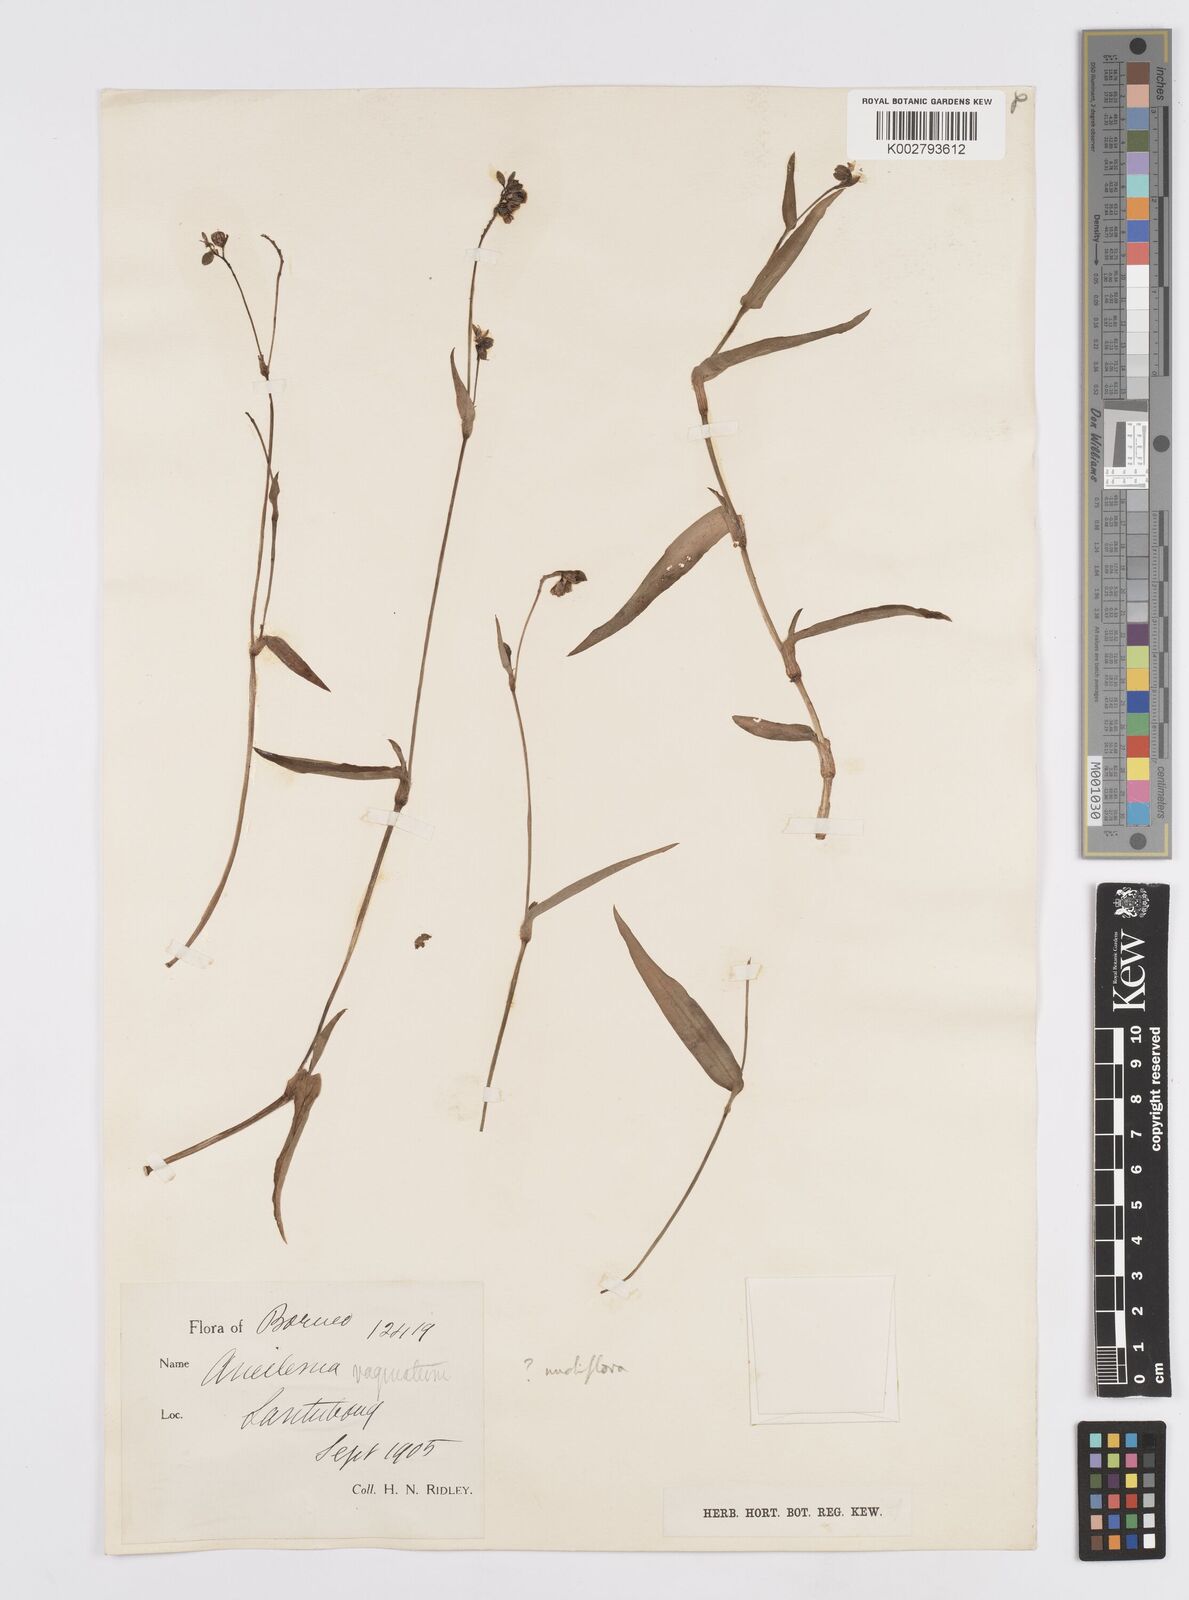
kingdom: Plantae
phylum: Tracheophyta
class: Liliopsida
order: Commelinales
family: Commelinaceae
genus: Murdannia
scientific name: Murdannia nudiflora
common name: Nakedstem dewflower
